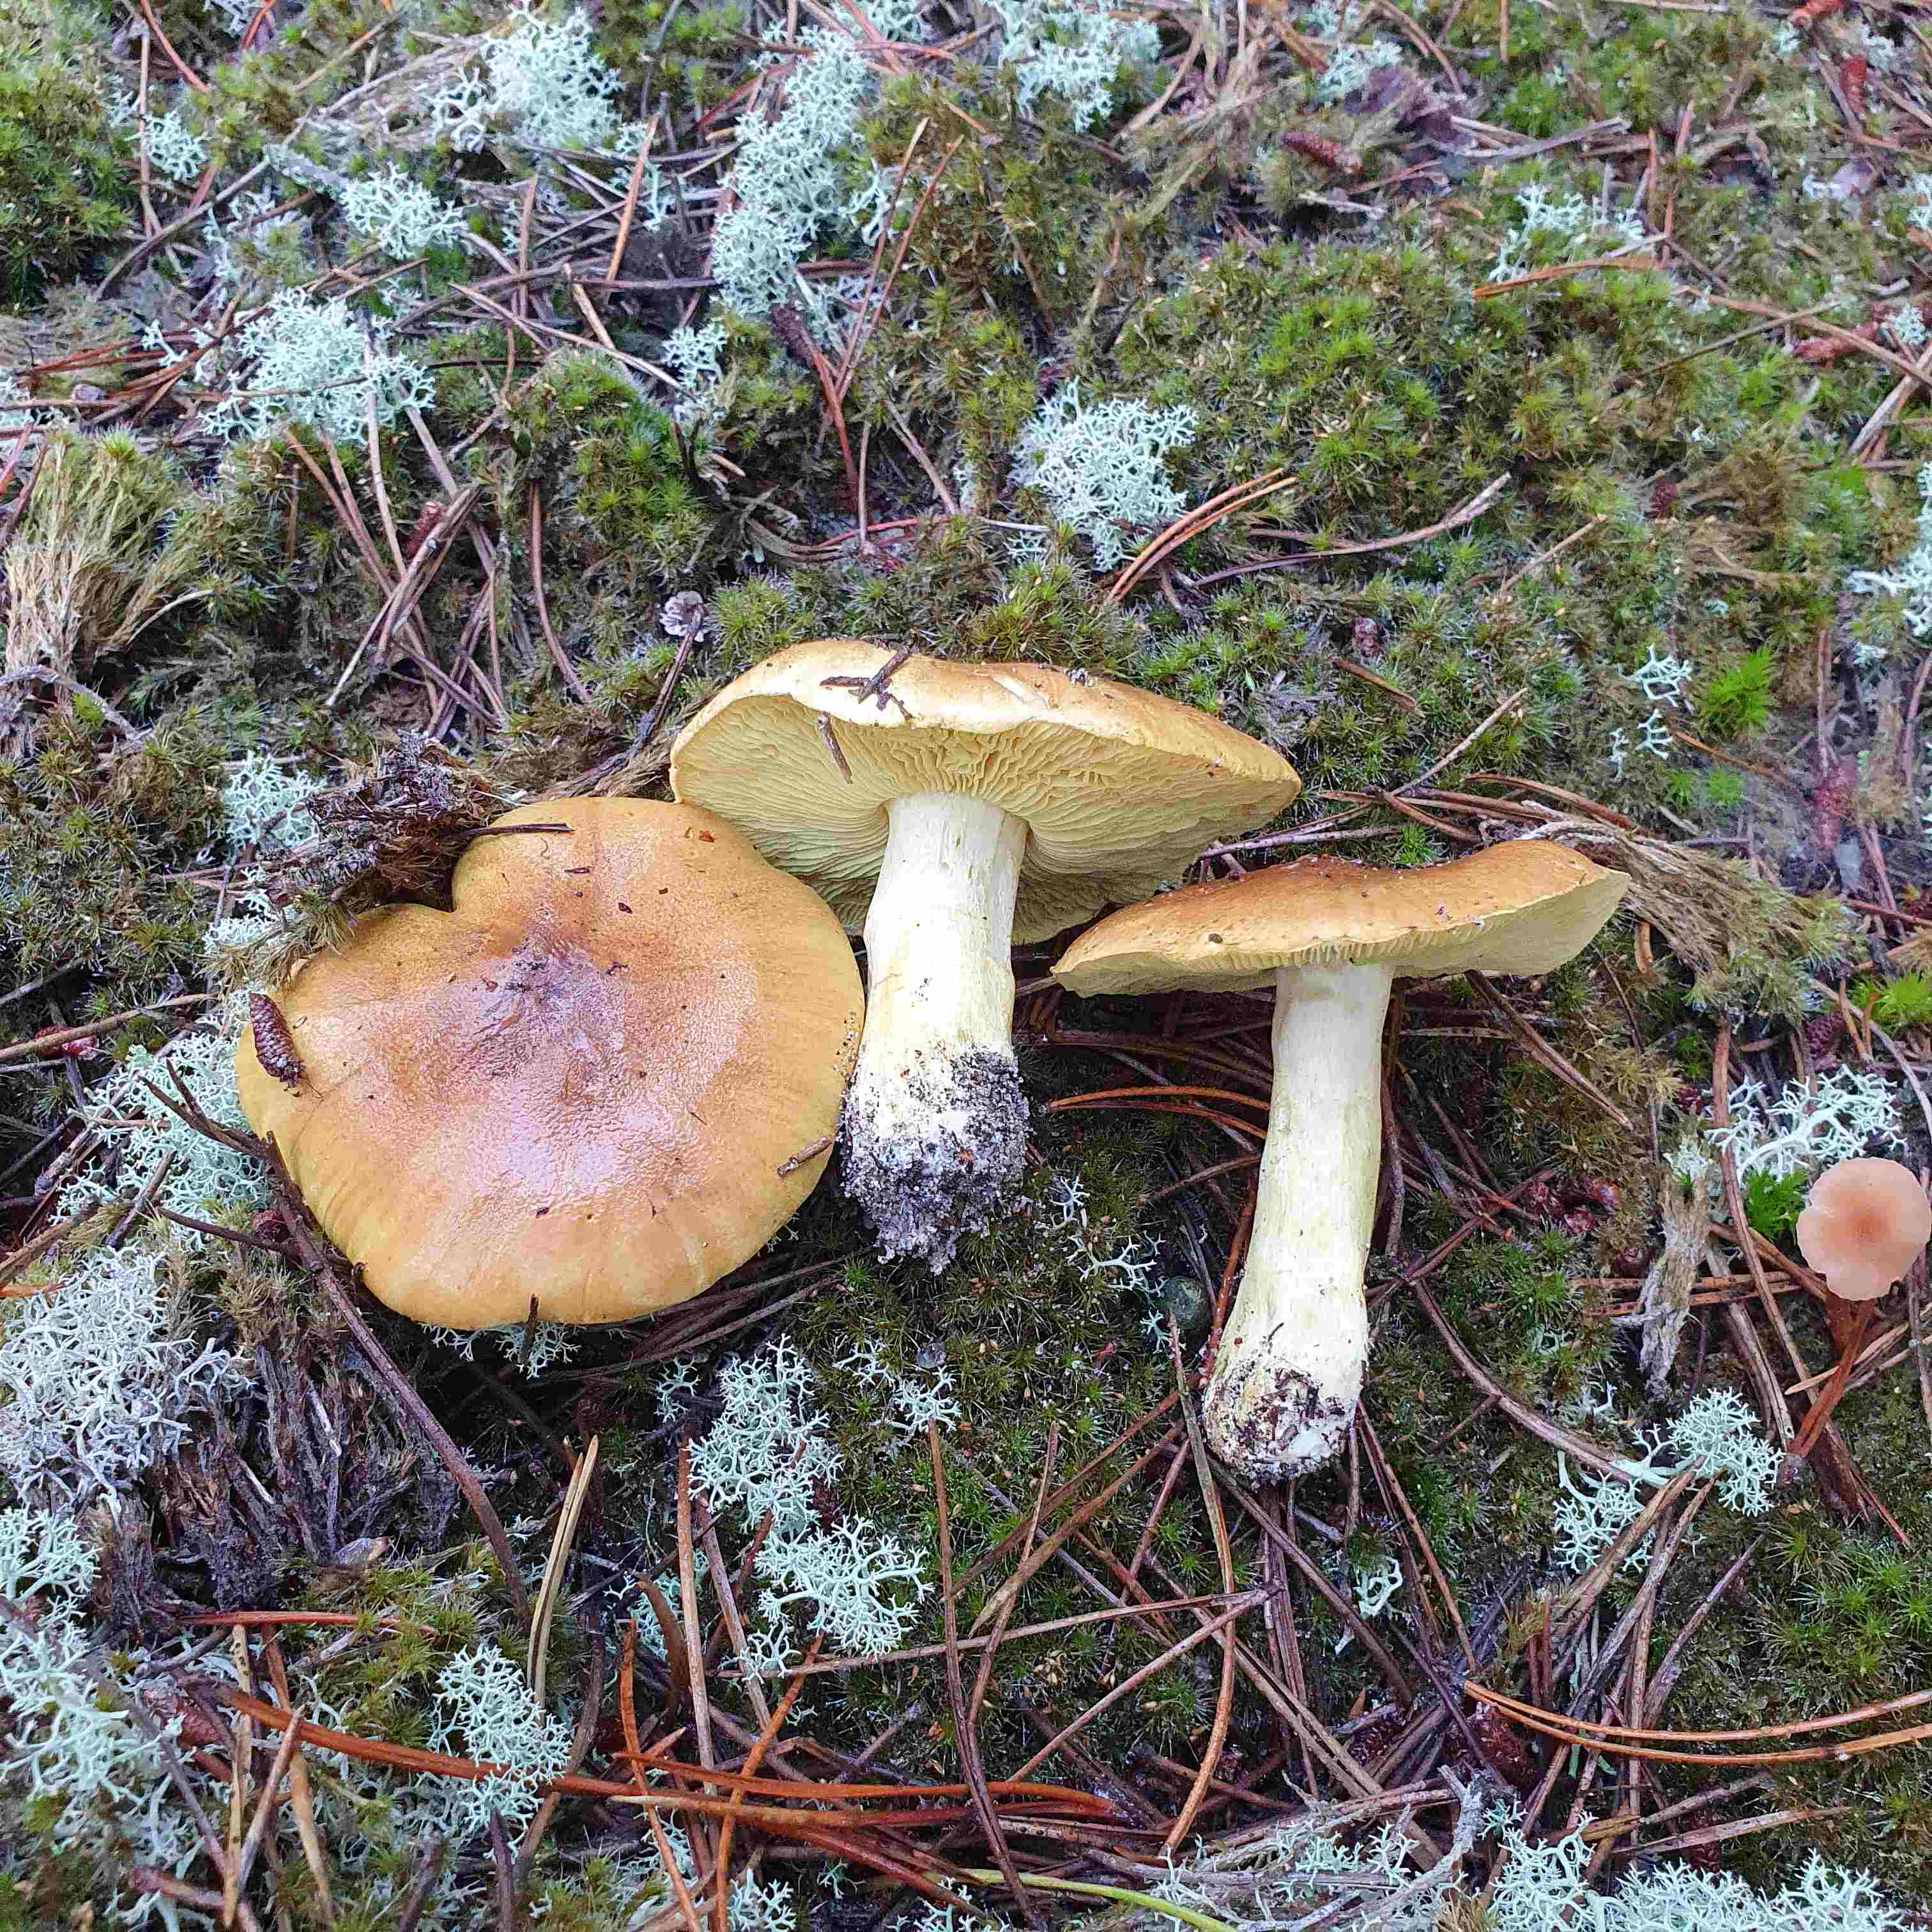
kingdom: Fungi
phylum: Basidiomycota
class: Agaricomycetes
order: Agaricales
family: Tricholomataceae
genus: Tricholoma
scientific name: Tricholoma equestre
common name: ægte ridderhat
